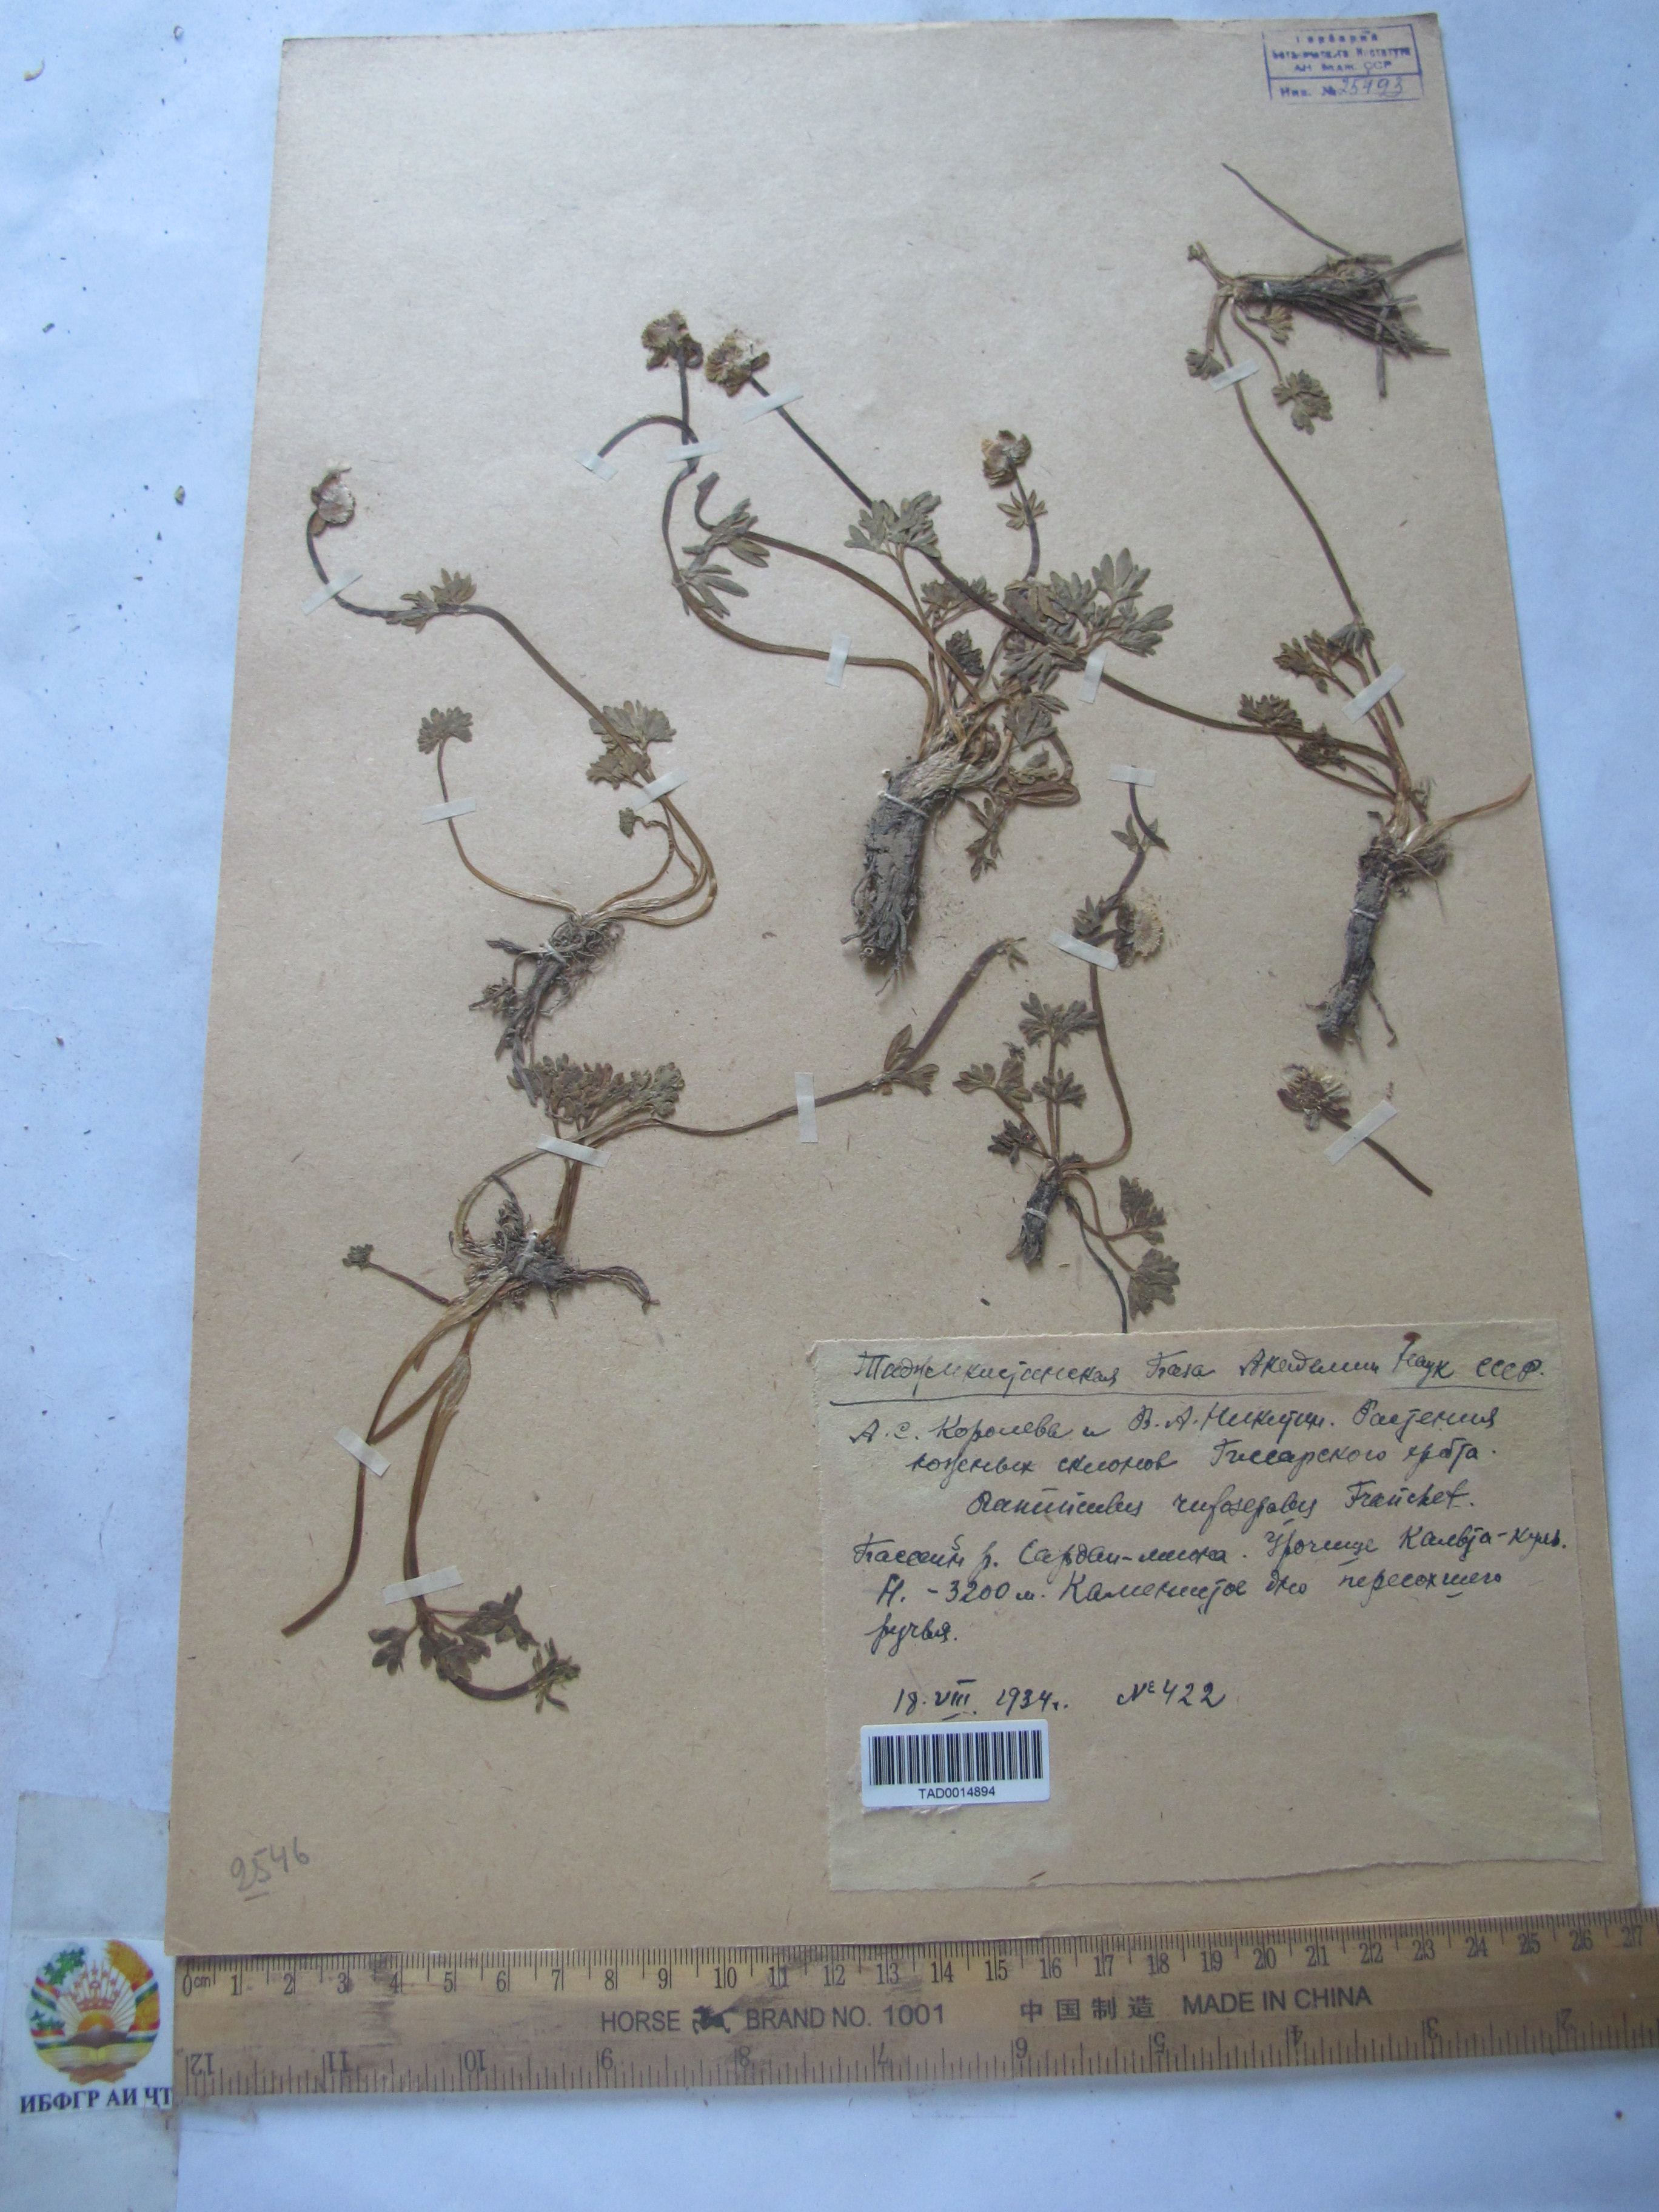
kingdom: Plantae
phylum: Tracheophyta
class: Magnoliopsida
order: Ranunculales
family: Ranunculaceae
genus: Ranunculus
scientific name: Ranunculus rufosepalus
